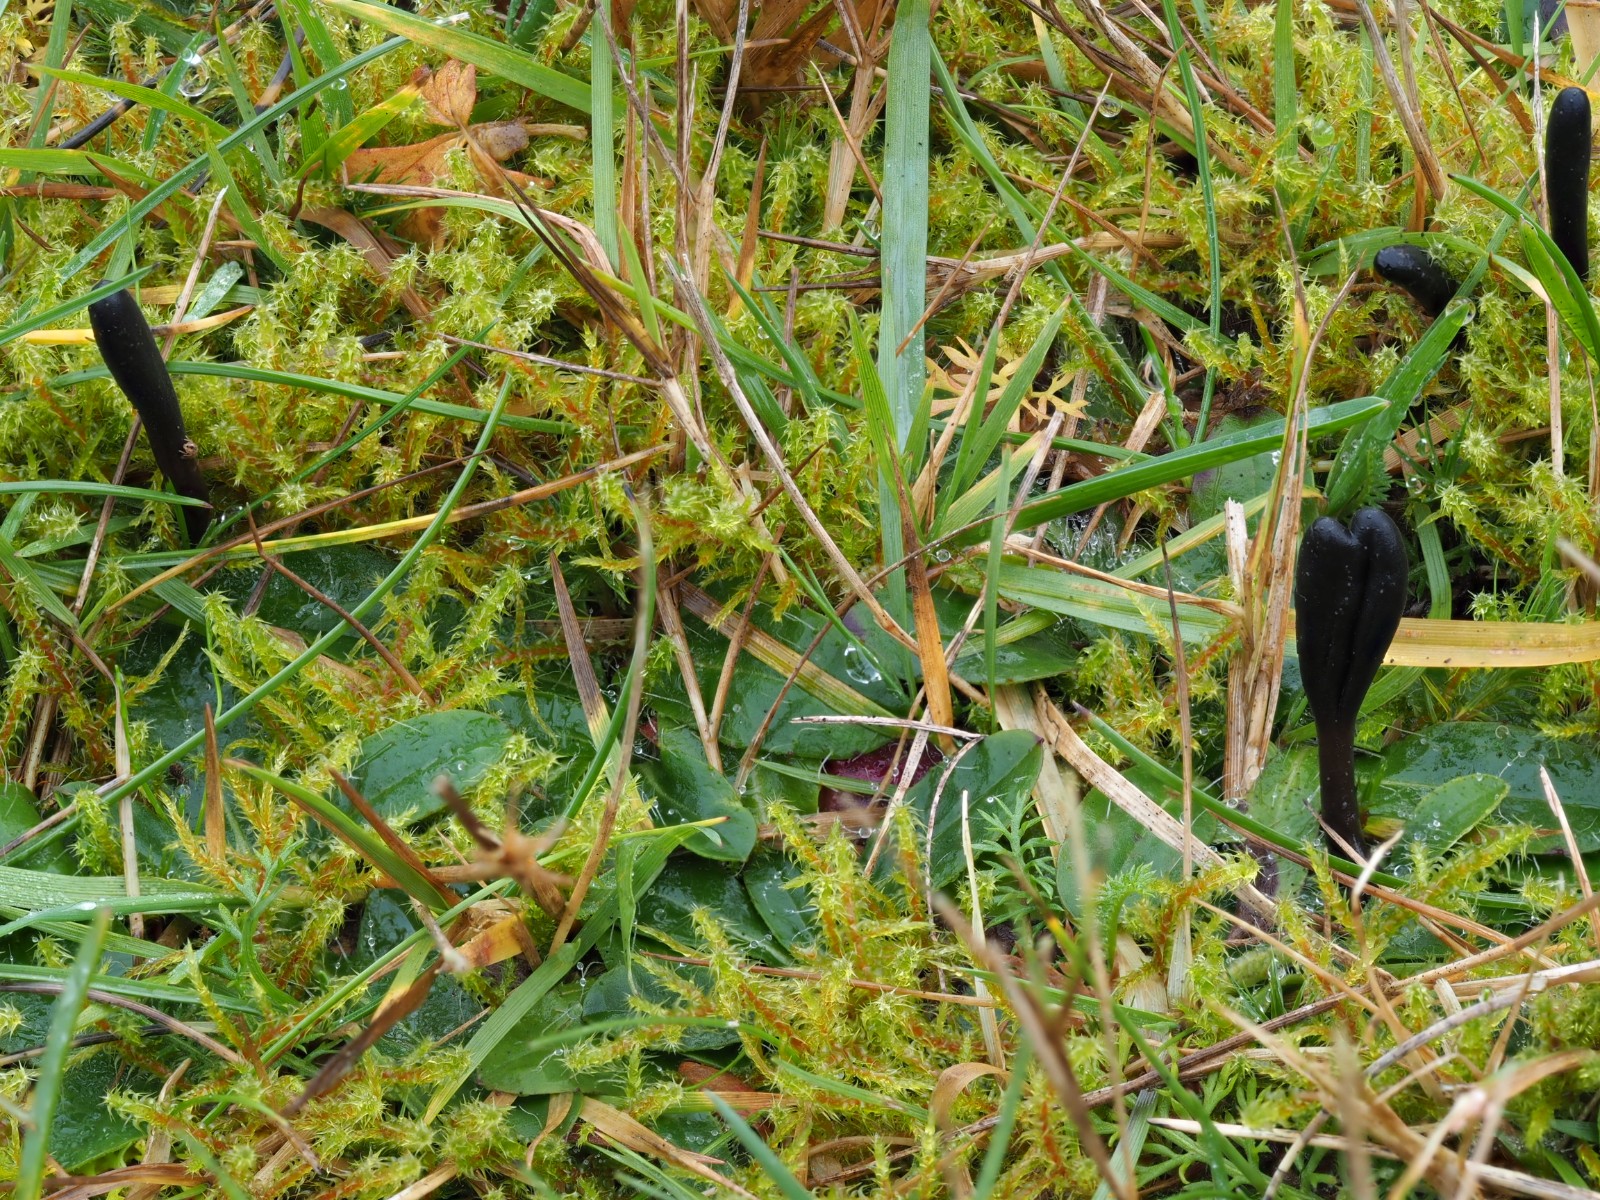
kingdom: Fungi
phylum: Ascomycota
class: Geoglossomycetes
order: Geoglossales
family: Geoglossaceae
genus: Glutinoglossum
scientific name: Glutinoglossum glutinosum
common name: slimet jordtunge
